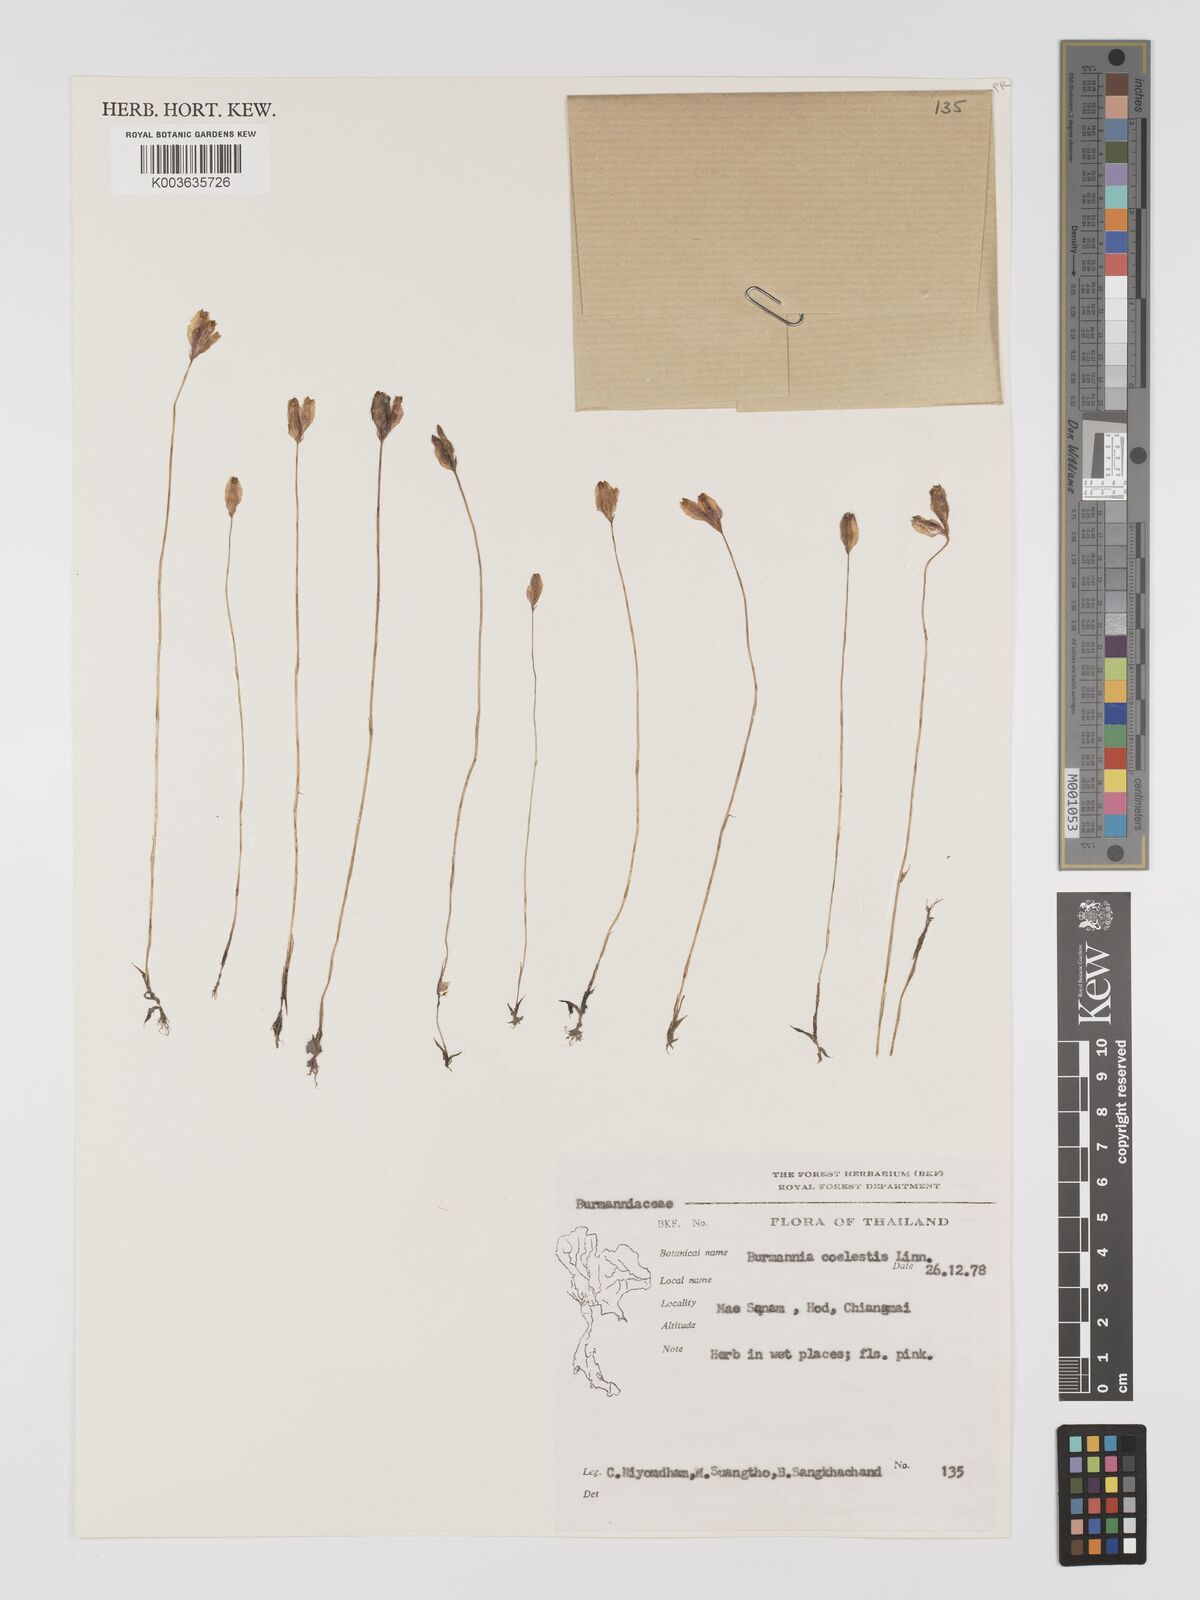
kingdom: Plantae
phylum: Tracheophyta
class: Liliopsida
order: Dioscoreales
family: Burmanniaceae
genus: Burmannia
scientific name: Burmannia coelestis
